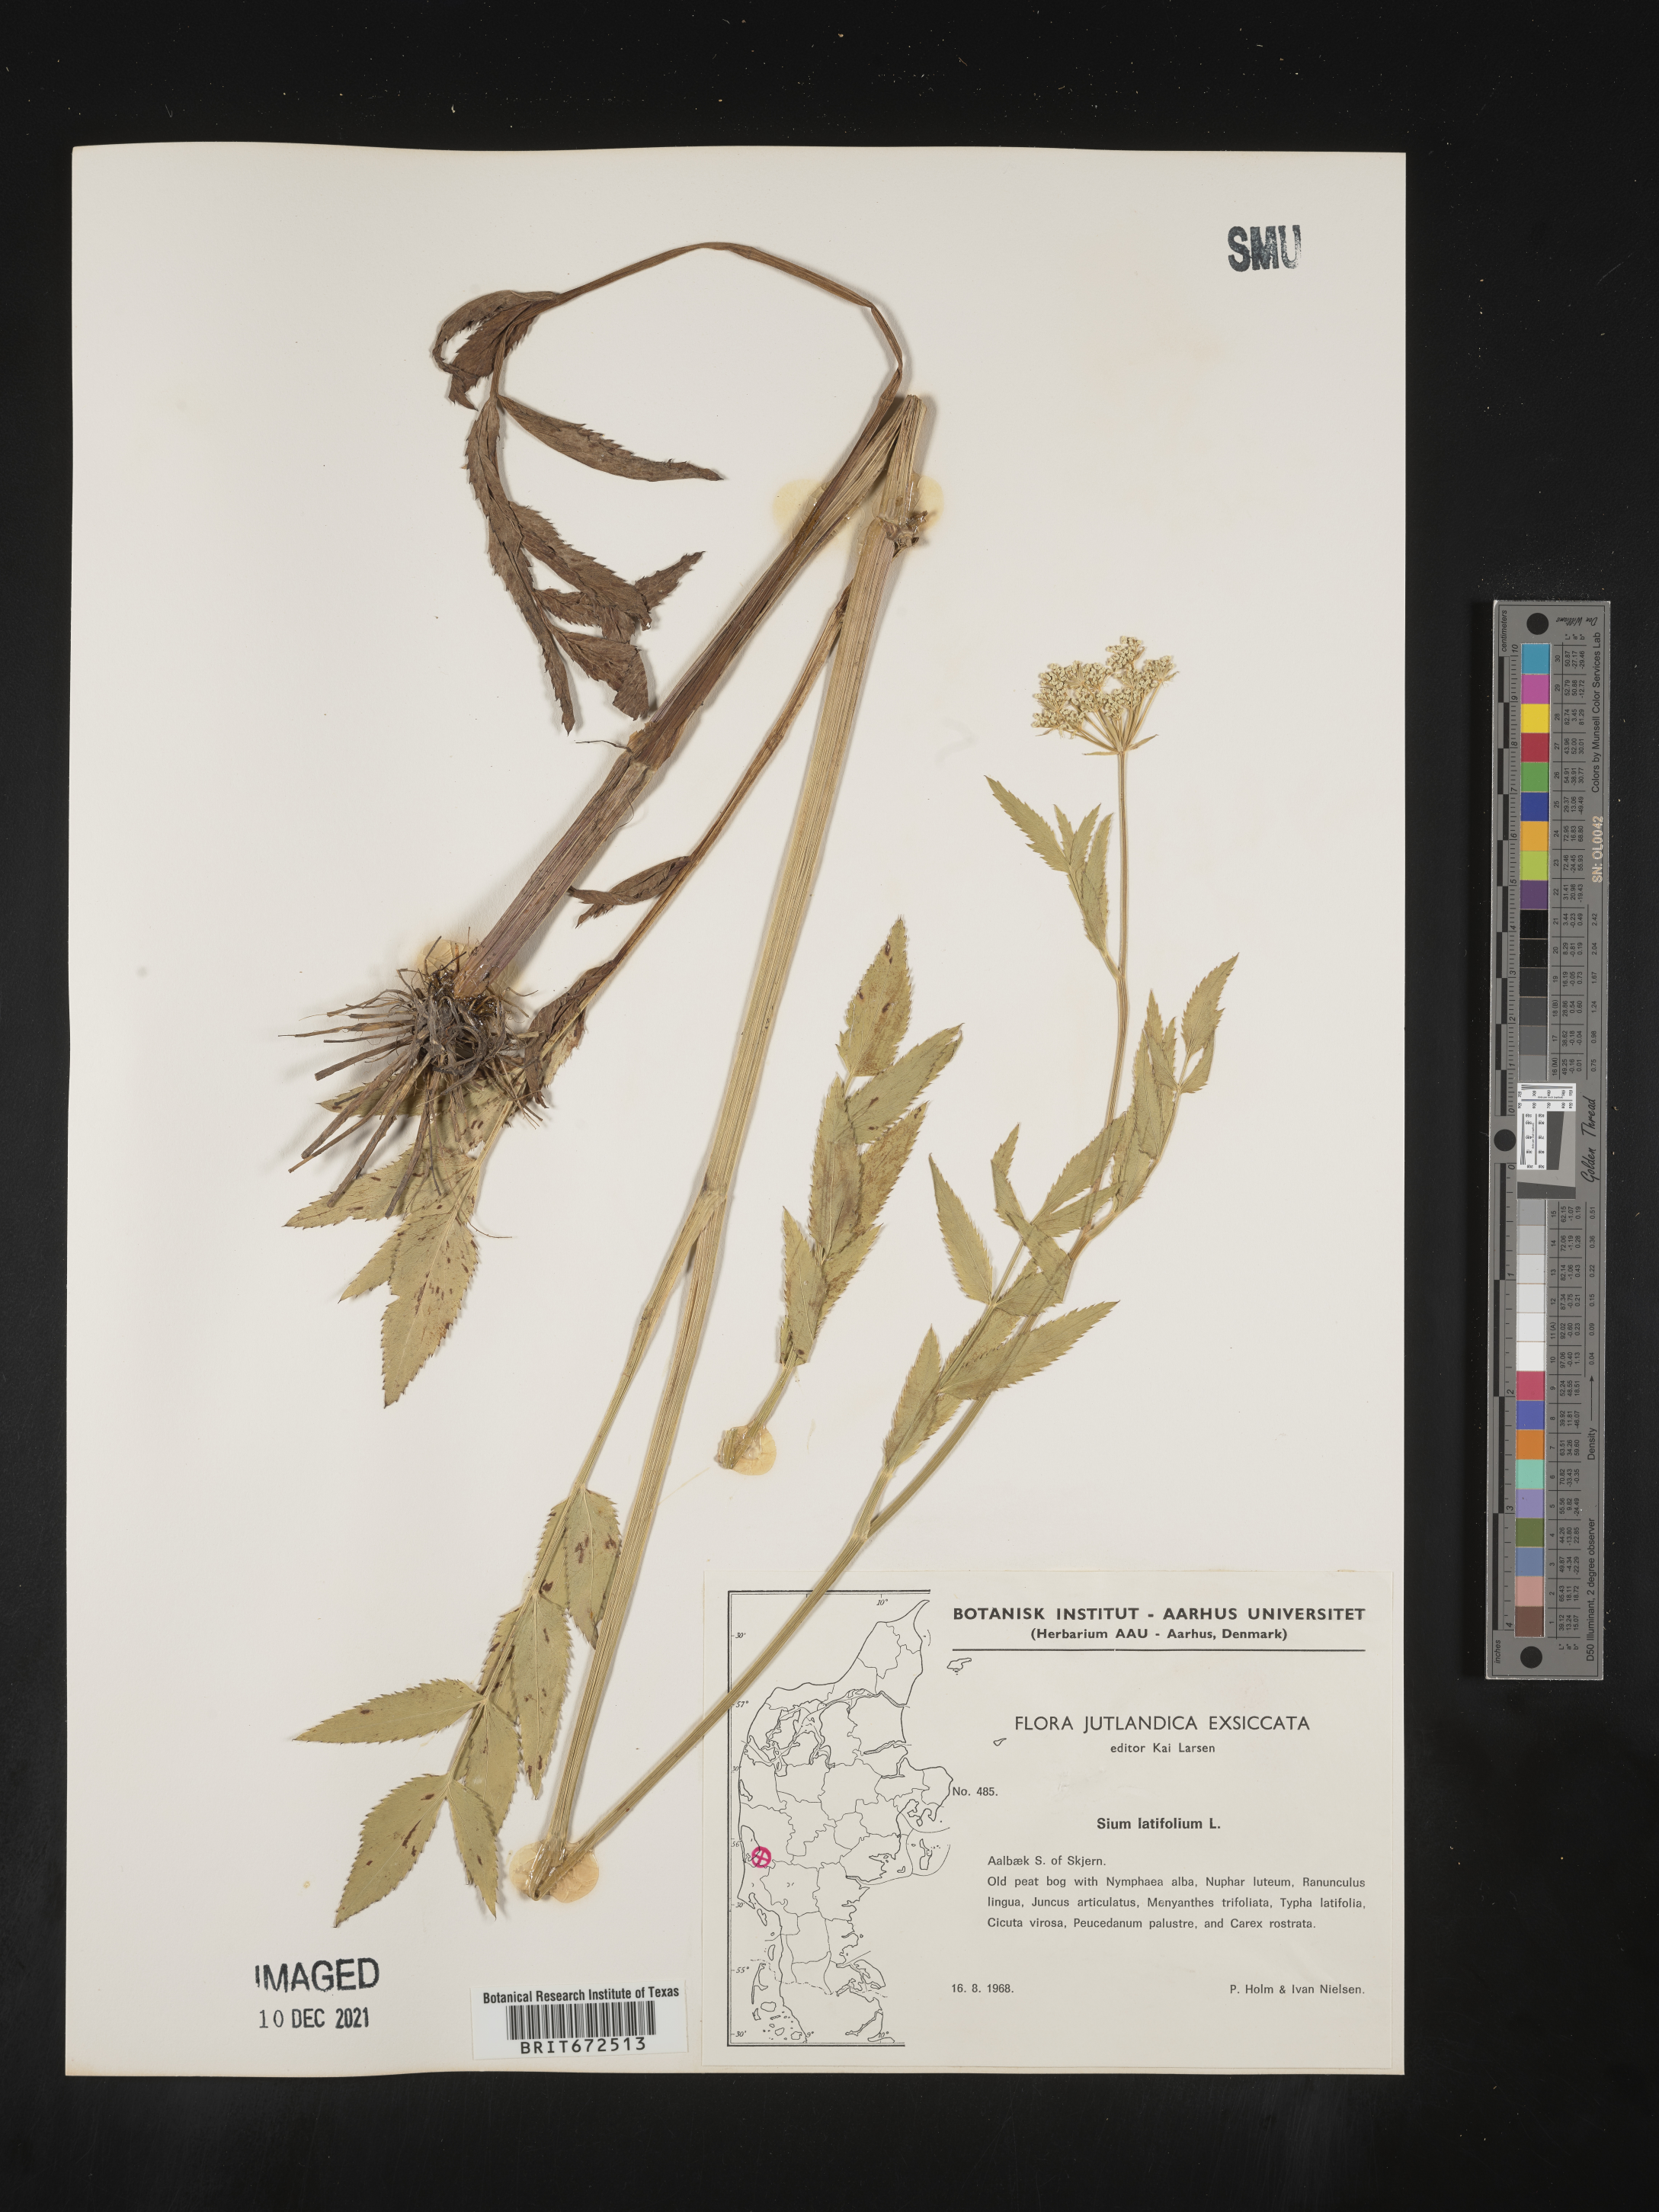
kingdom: Plantae
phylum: Tracheophyta
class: Magnoliopsida
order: Apiales
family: Apiaceae
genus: Sium
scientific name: Sium
